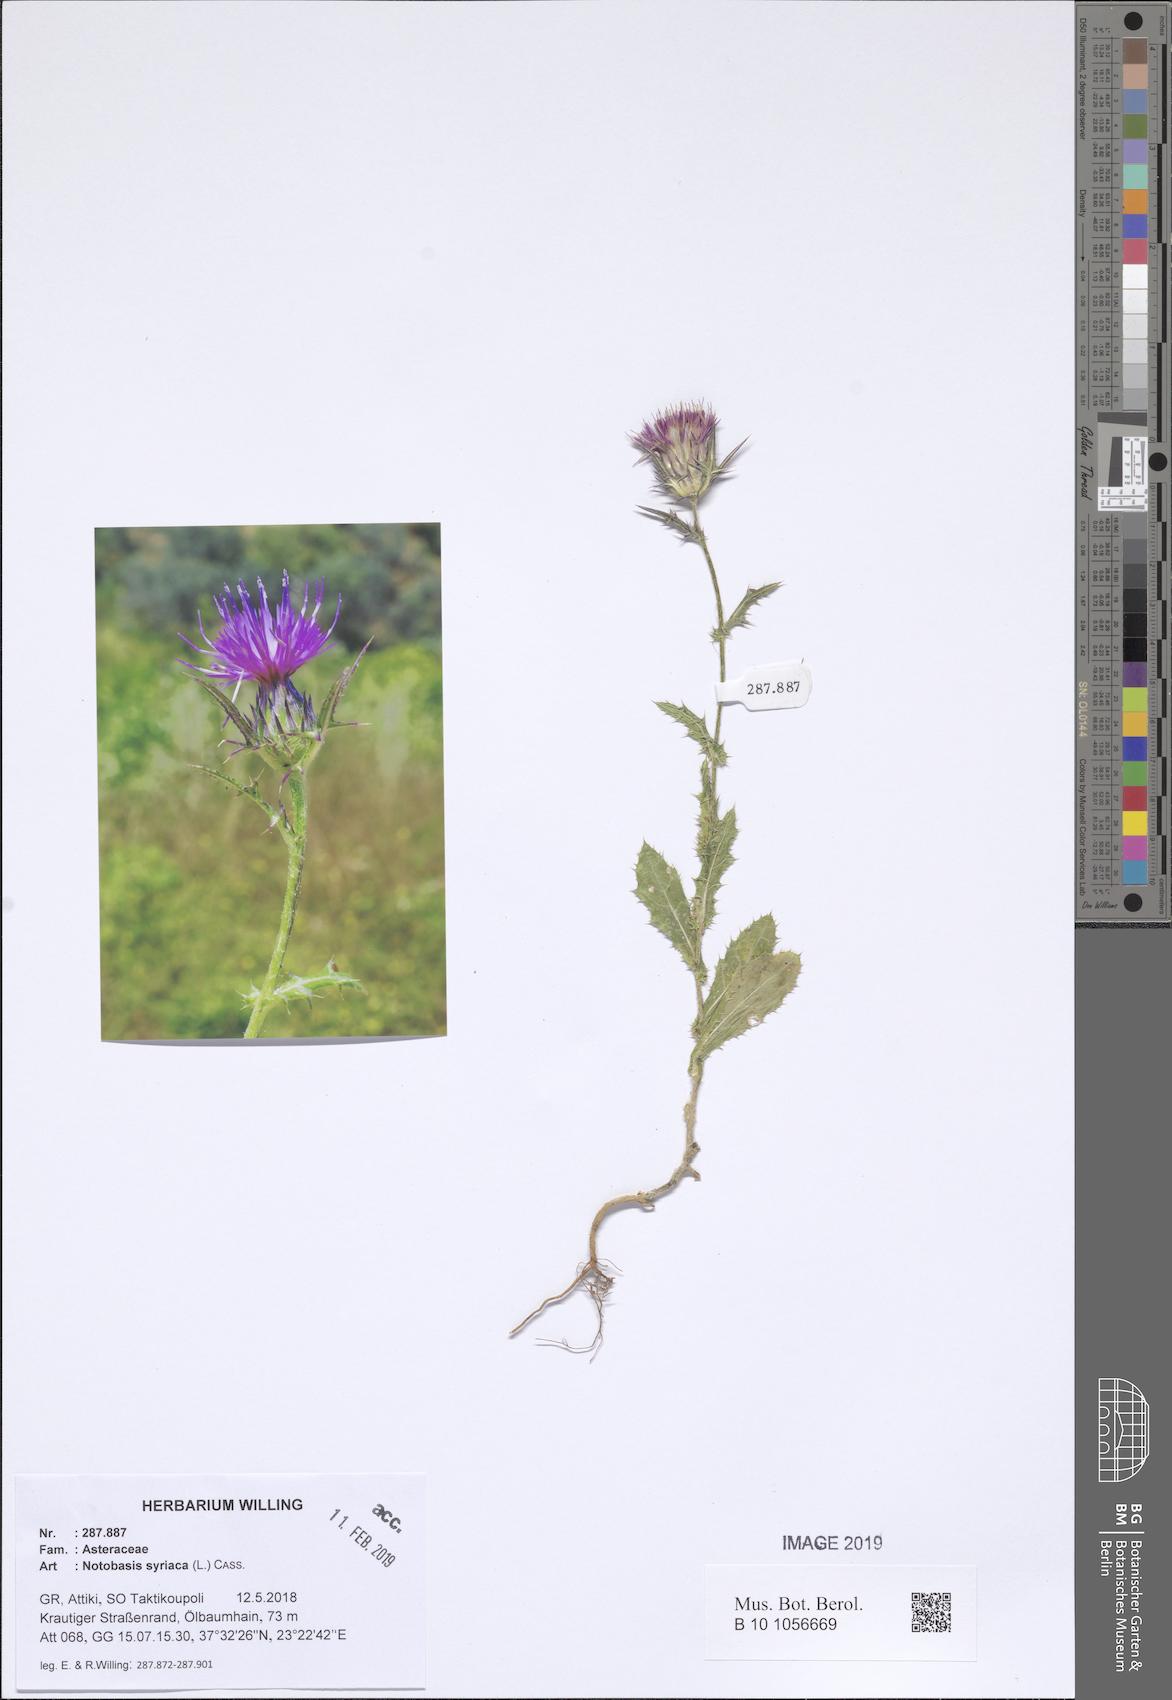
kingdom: Plantae
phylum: Tracheophyta
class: Magnoliopsida
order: Asterales
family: Asteraceae
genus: Notobasis
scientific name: Notobasis syriaca
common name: Syrian thistle
